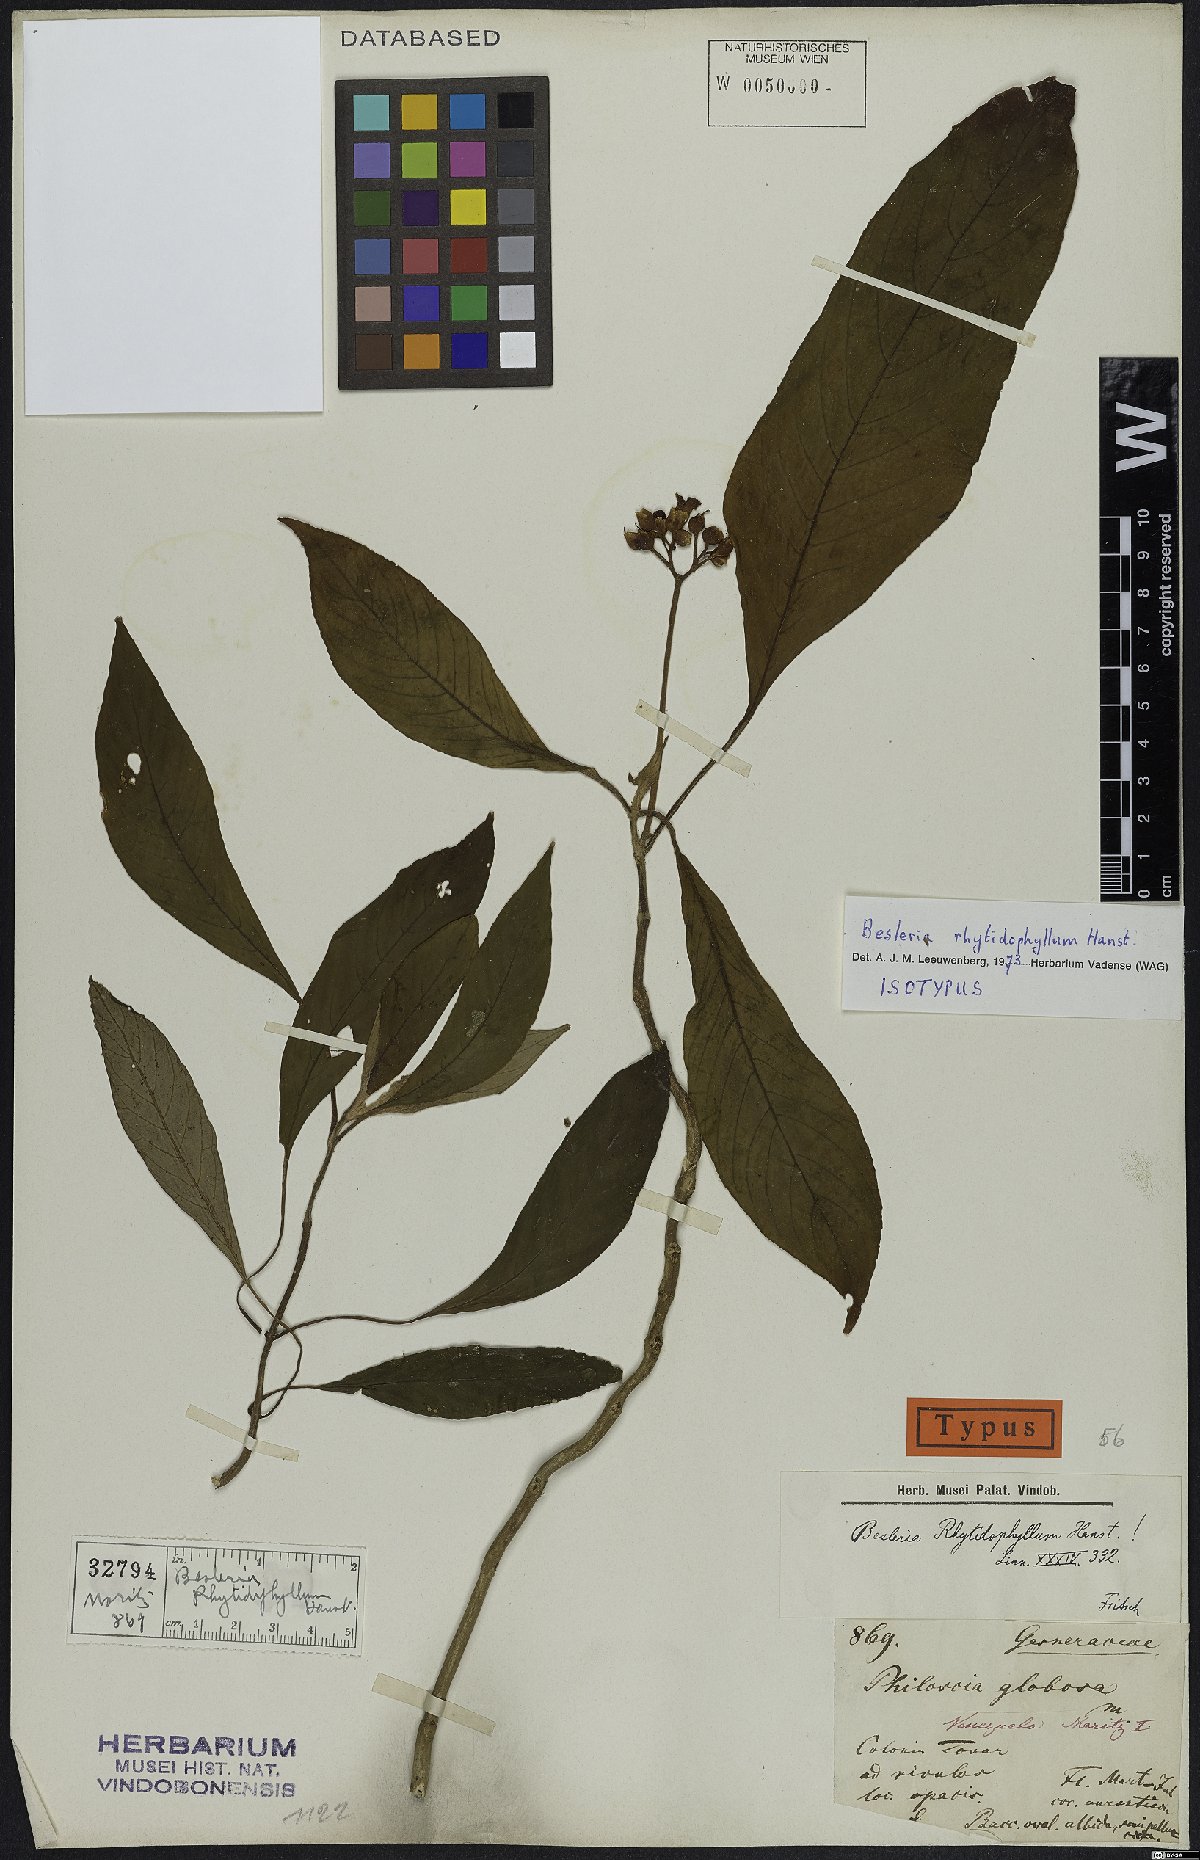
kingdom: Plantae
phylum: Tracheophyta
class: Magnoliopsida
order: Lamiales
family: Gesneriaceae
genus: Besleria
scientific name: Besleria rhytidophyllum
